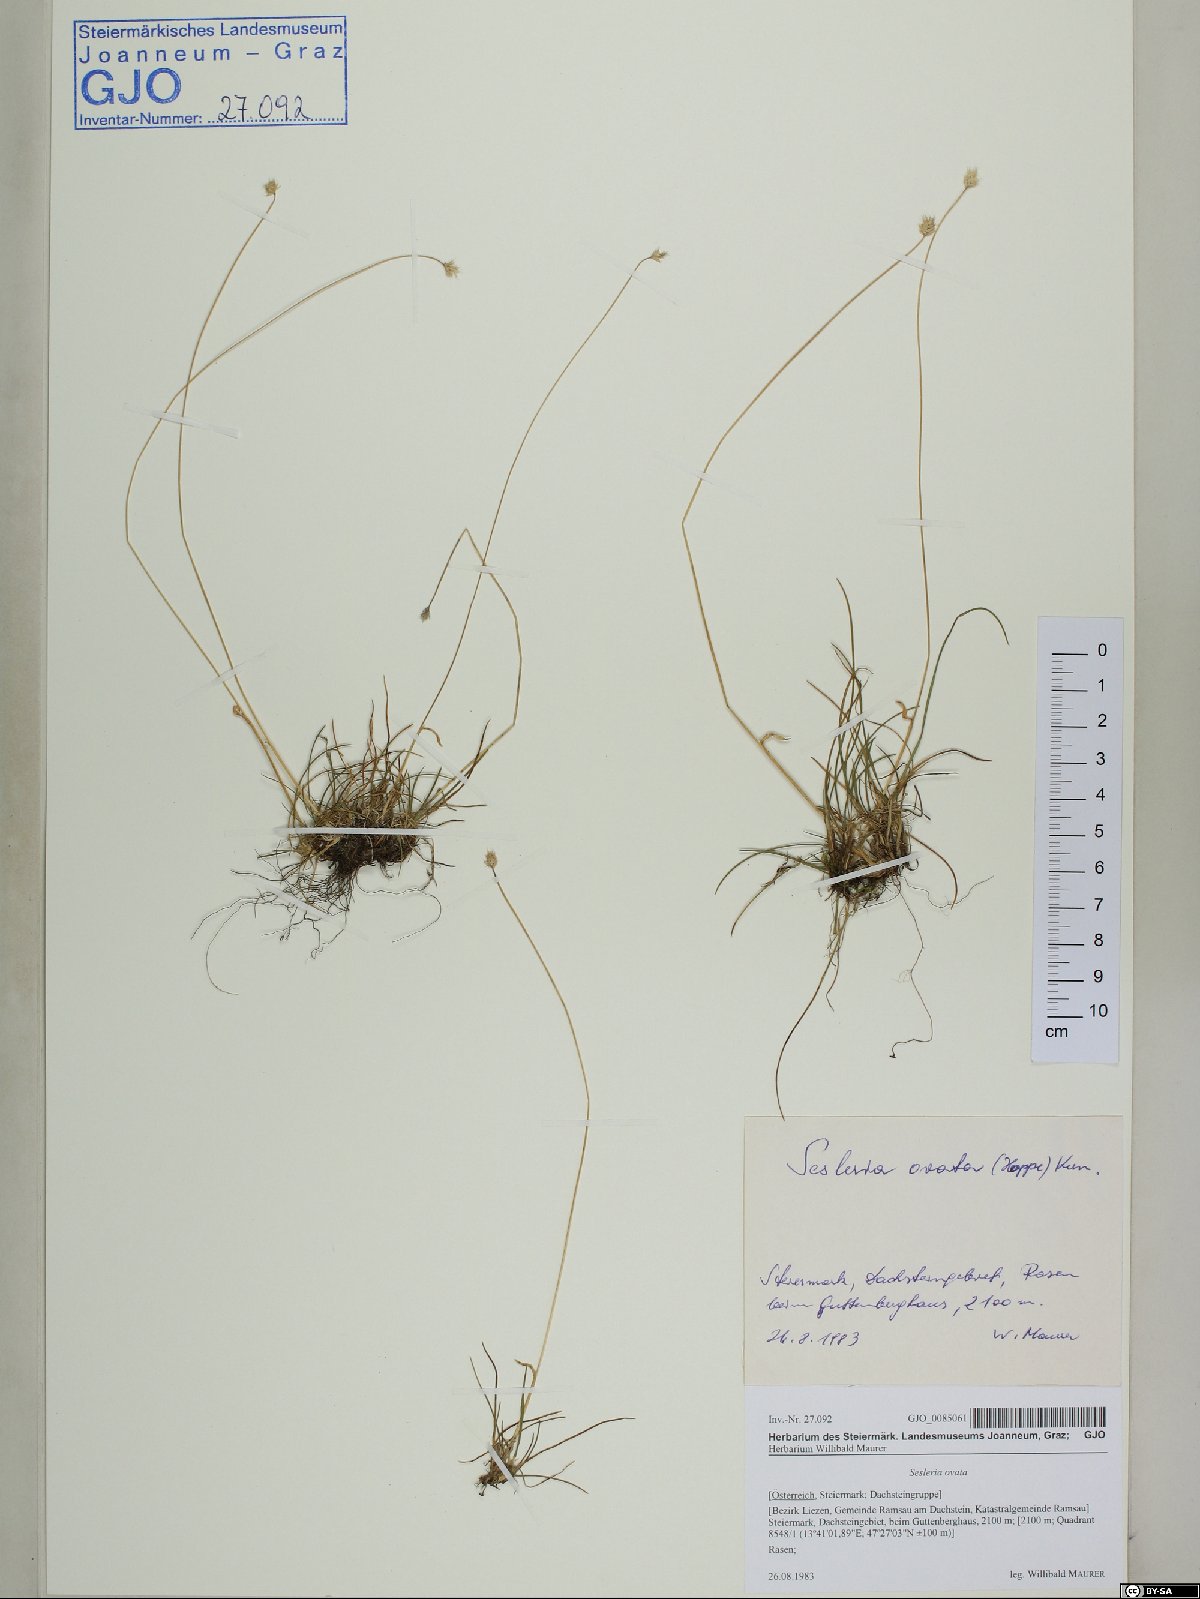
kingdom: Plantae
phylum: Tracheophyta
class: Liliopsida
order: Poales
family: Poaceae
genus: Psilathera
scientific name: Psilathera ovata
